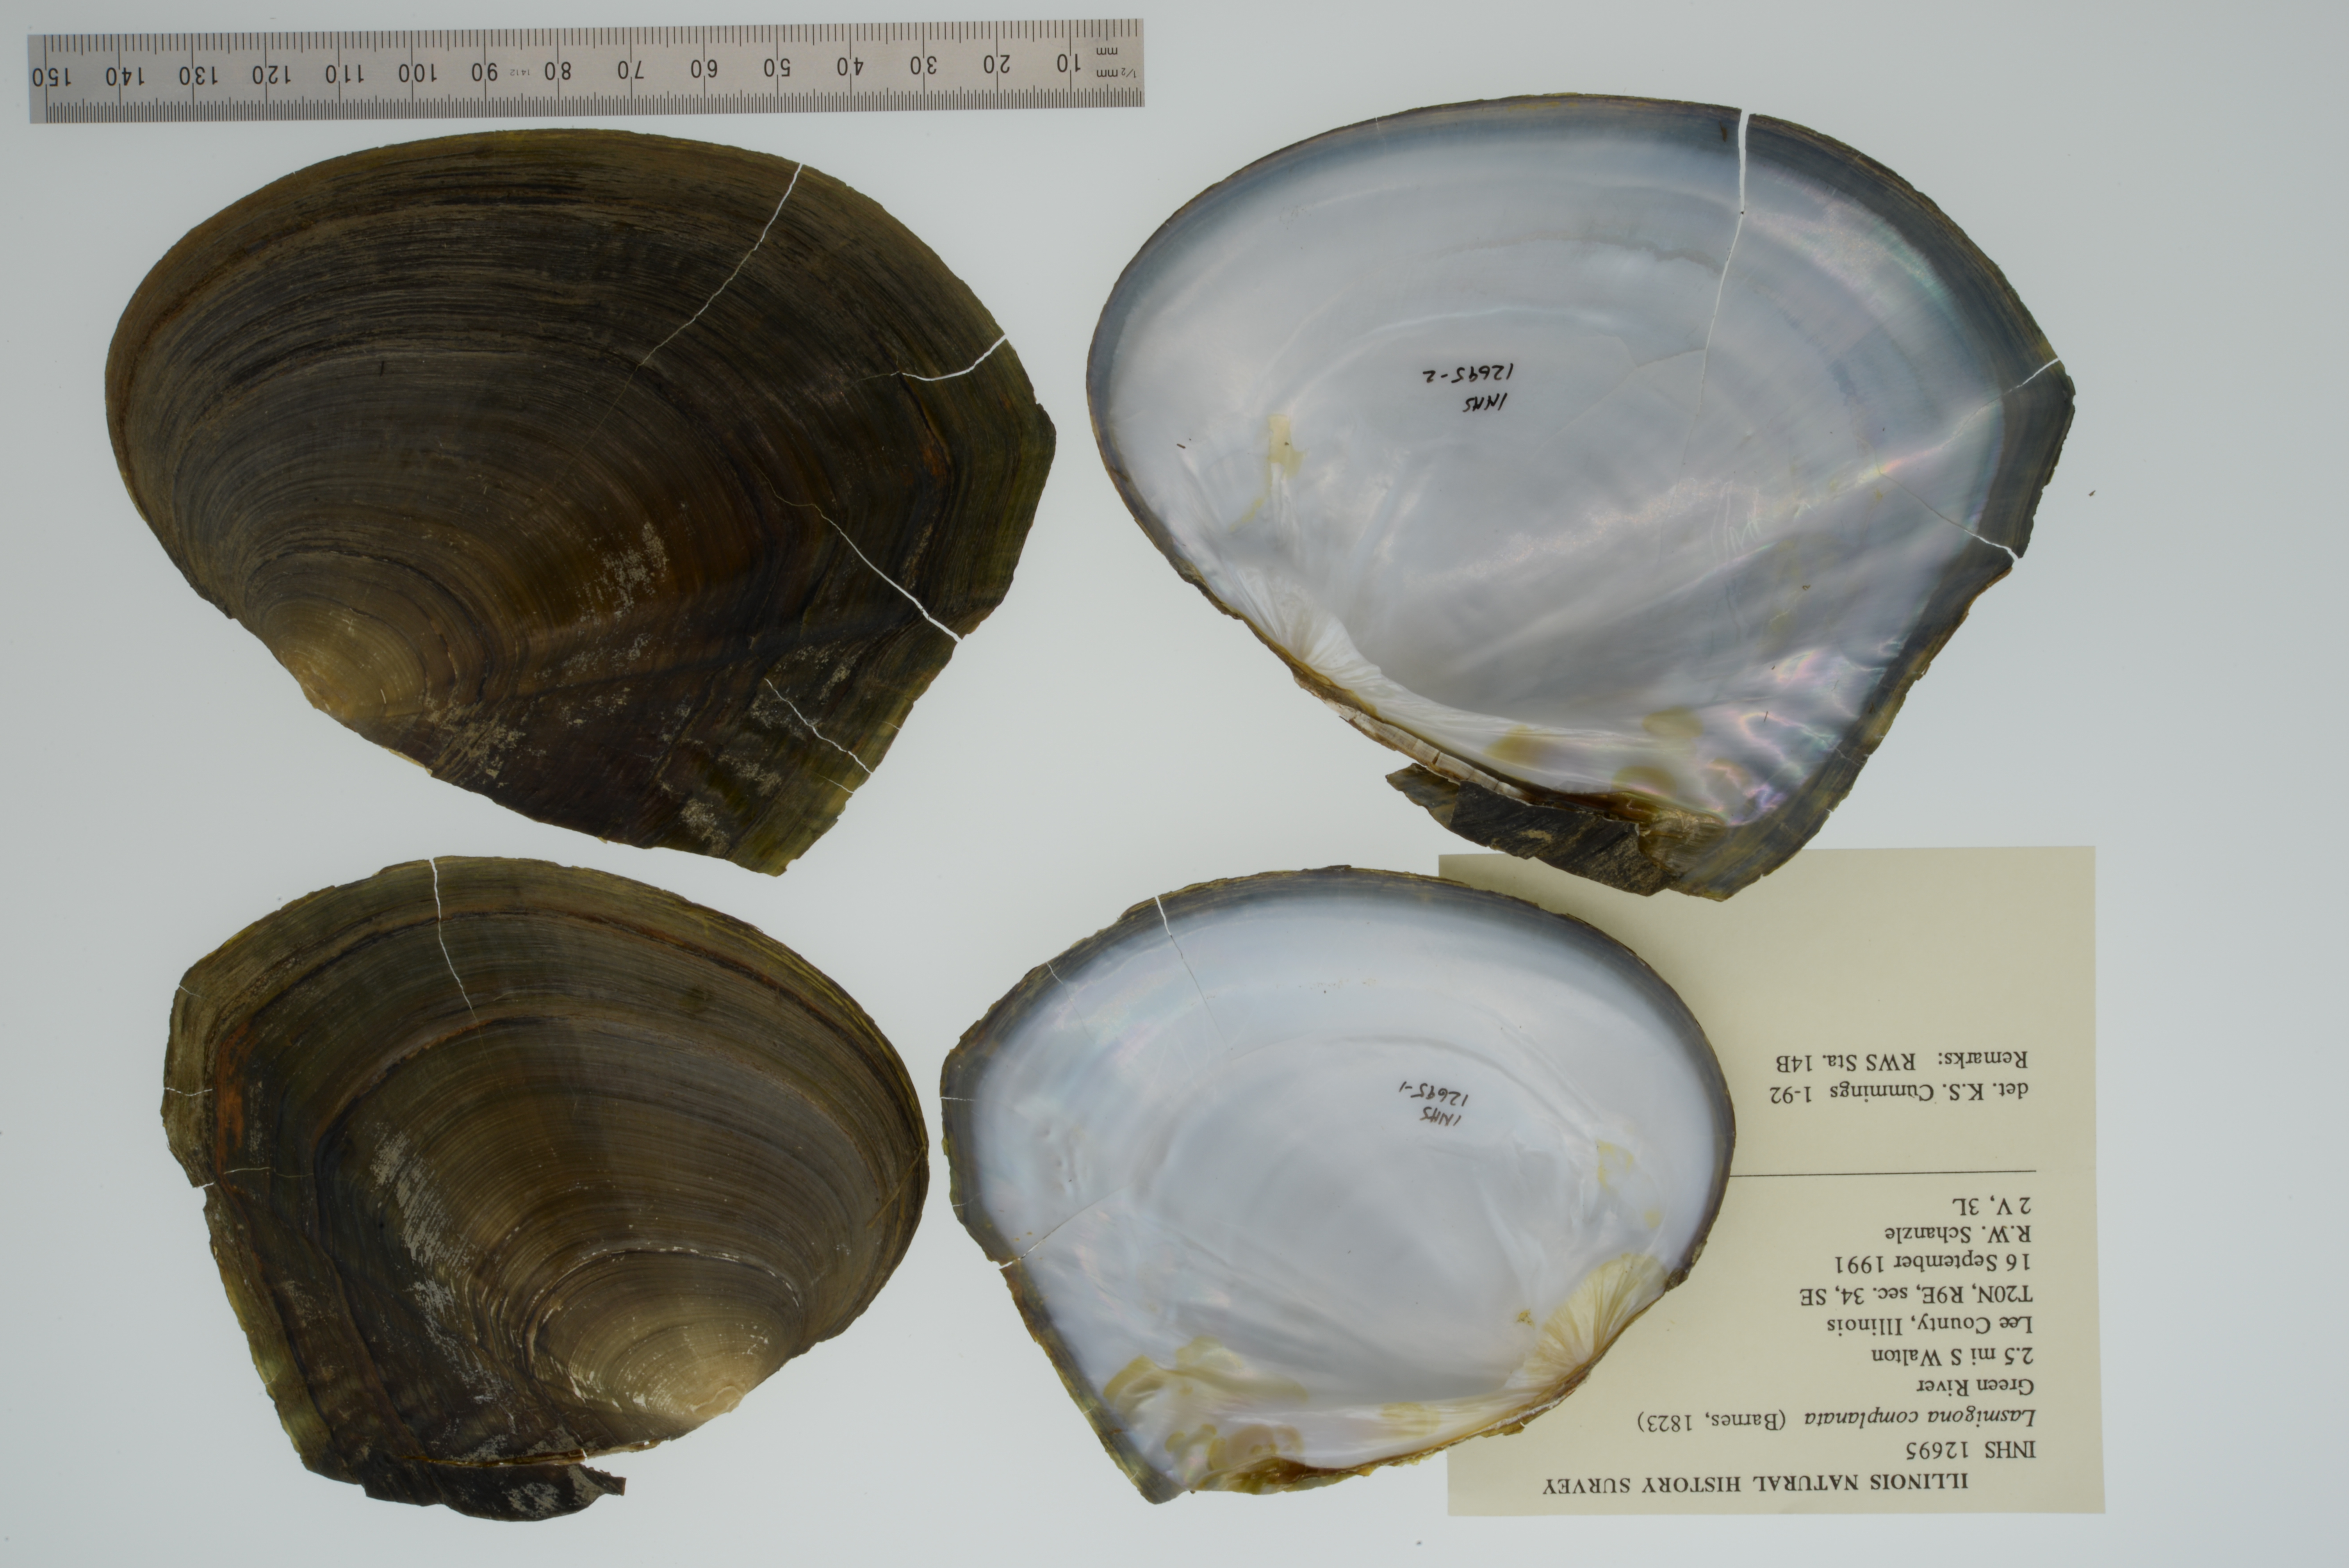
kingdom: Animalia
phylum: Mollusca
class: Bivalvia
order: Unionida
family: Unionidae
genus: Lasmigona
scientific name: Lasmigona complanata
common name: White heelsplitter
